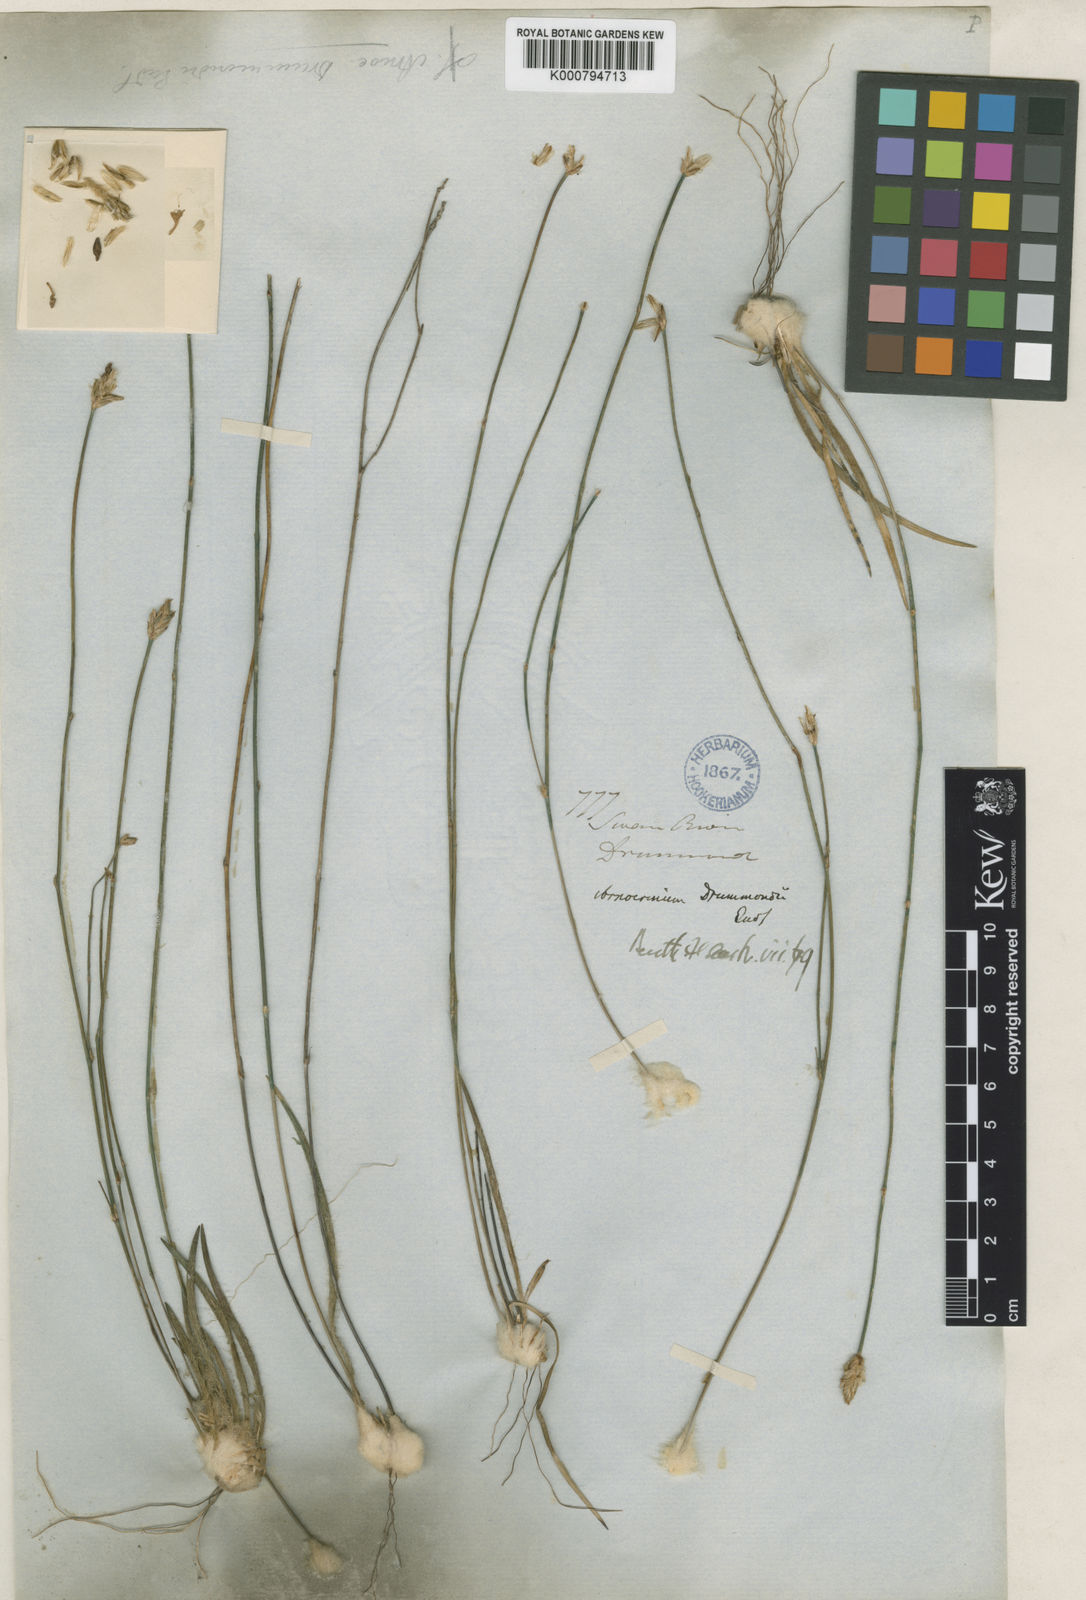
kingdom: Plantae
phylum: Tracheophyta
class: Liliopsida
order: Asparagales
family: Asphodelaceae
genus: Arnocrinum
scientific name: Arnocrinum drummondii
